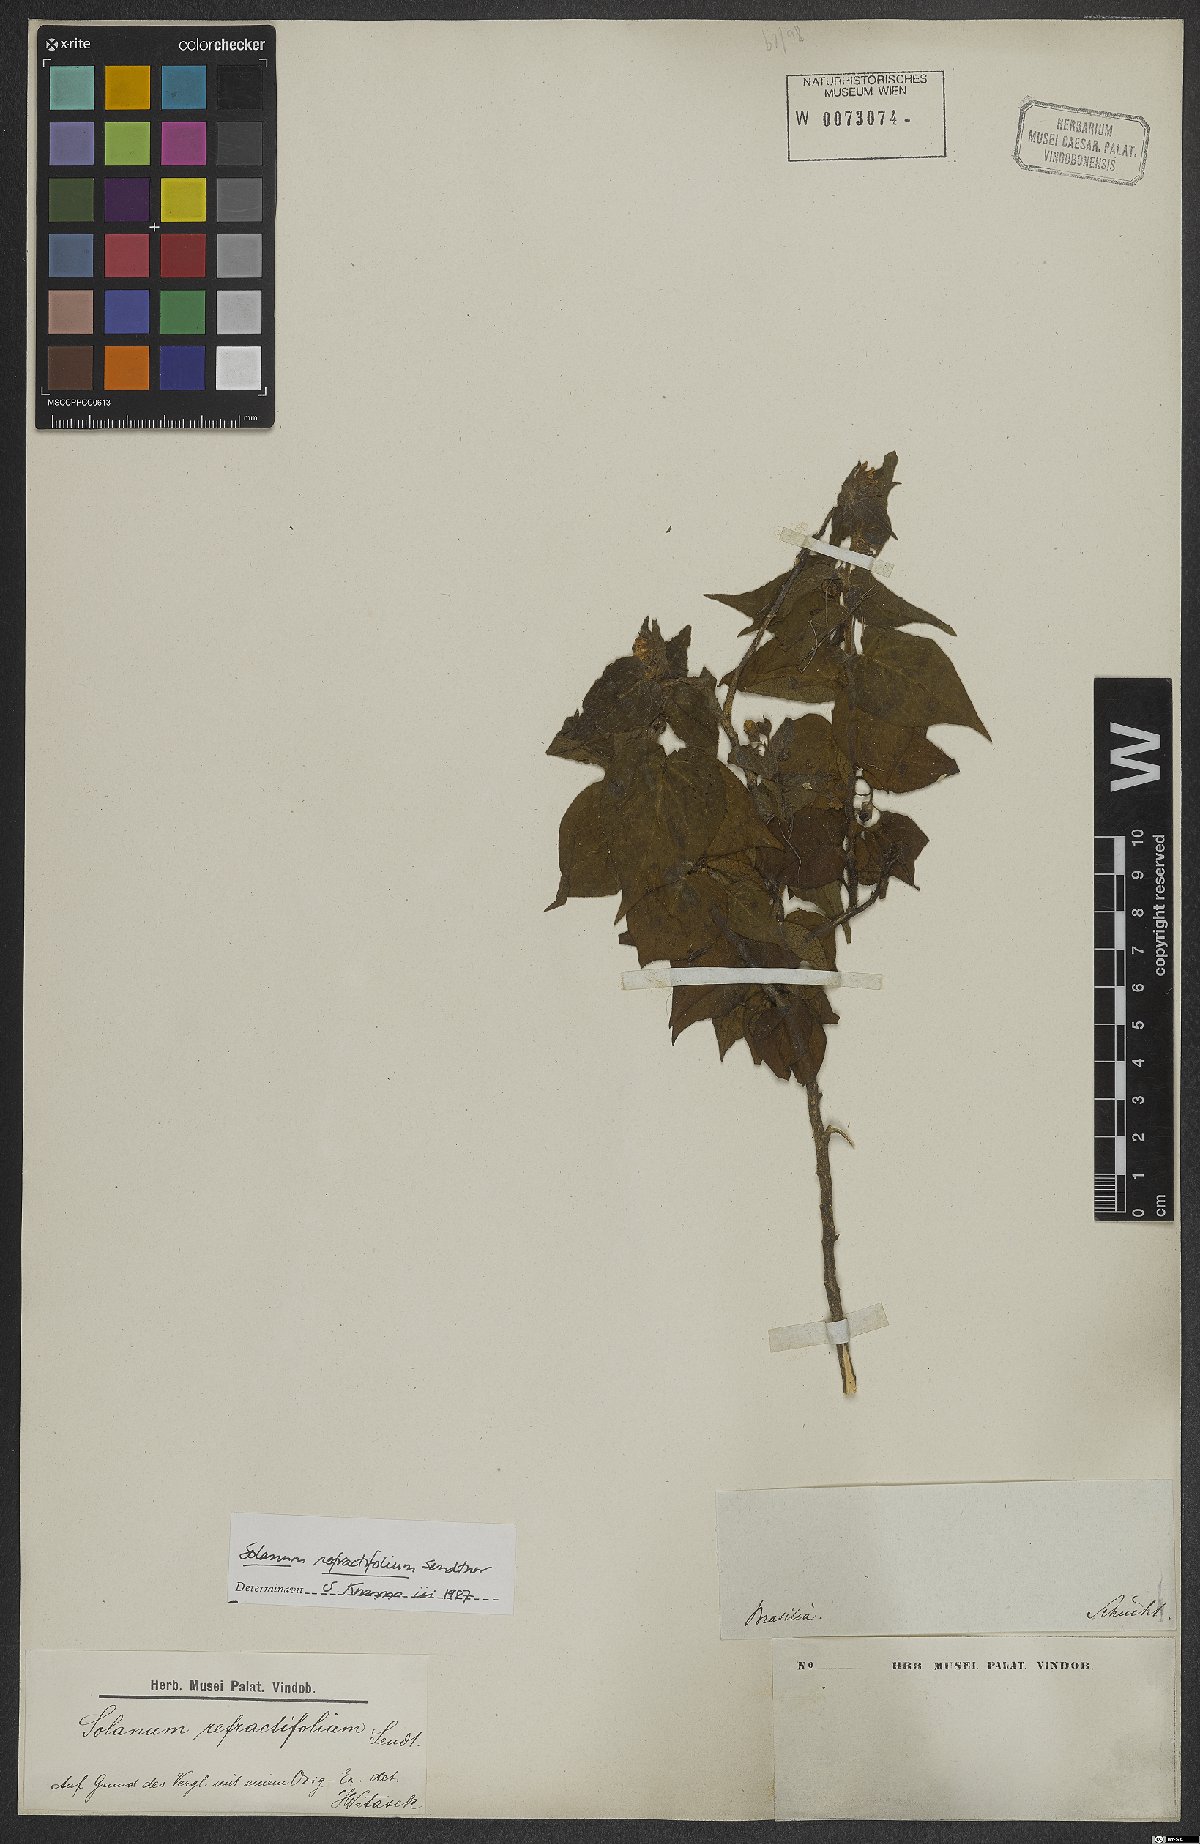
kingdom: Plantae
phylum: Tracheophyta
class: Magnoliopsida
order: Solanales
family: Solanaceae
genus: Solanum
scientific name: Solanum refractifolium
